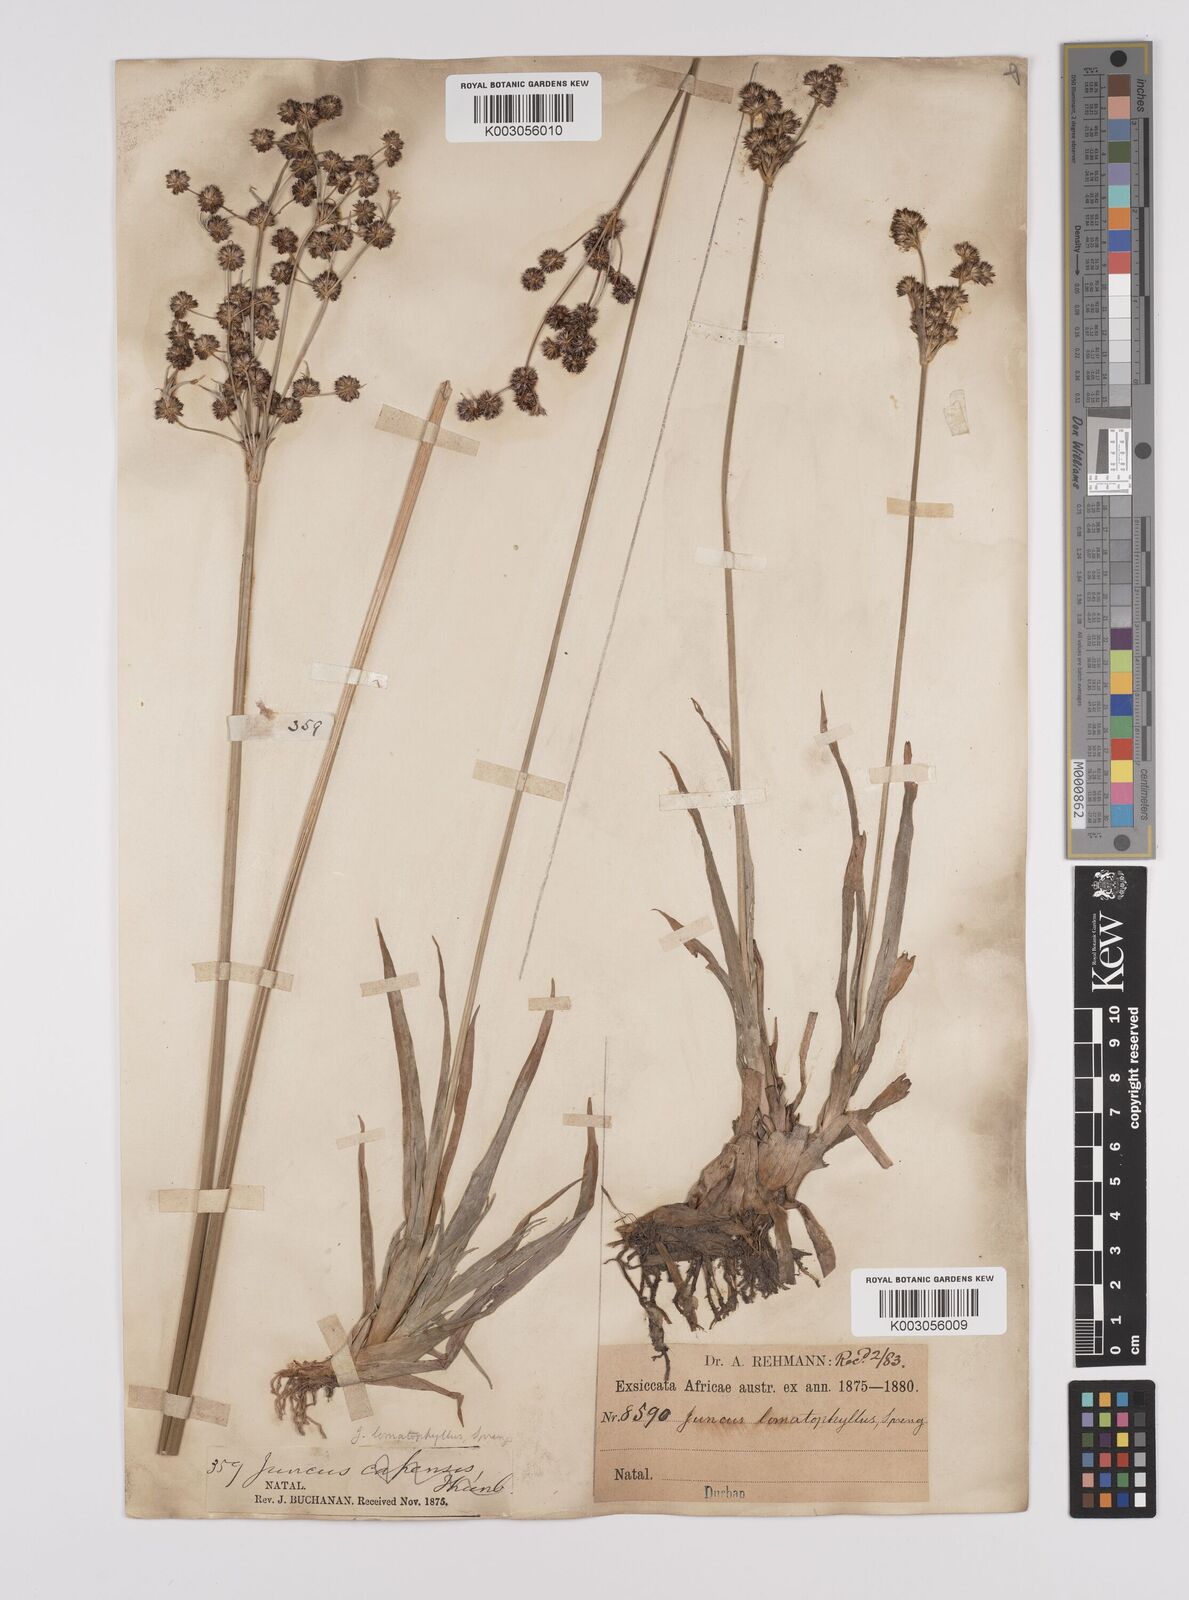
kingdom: Plantae
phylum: Tracheophyta
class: Liliopsida
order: Poales
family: Juncaceae
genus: Juncus
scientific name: Juncus lomatophyllus
